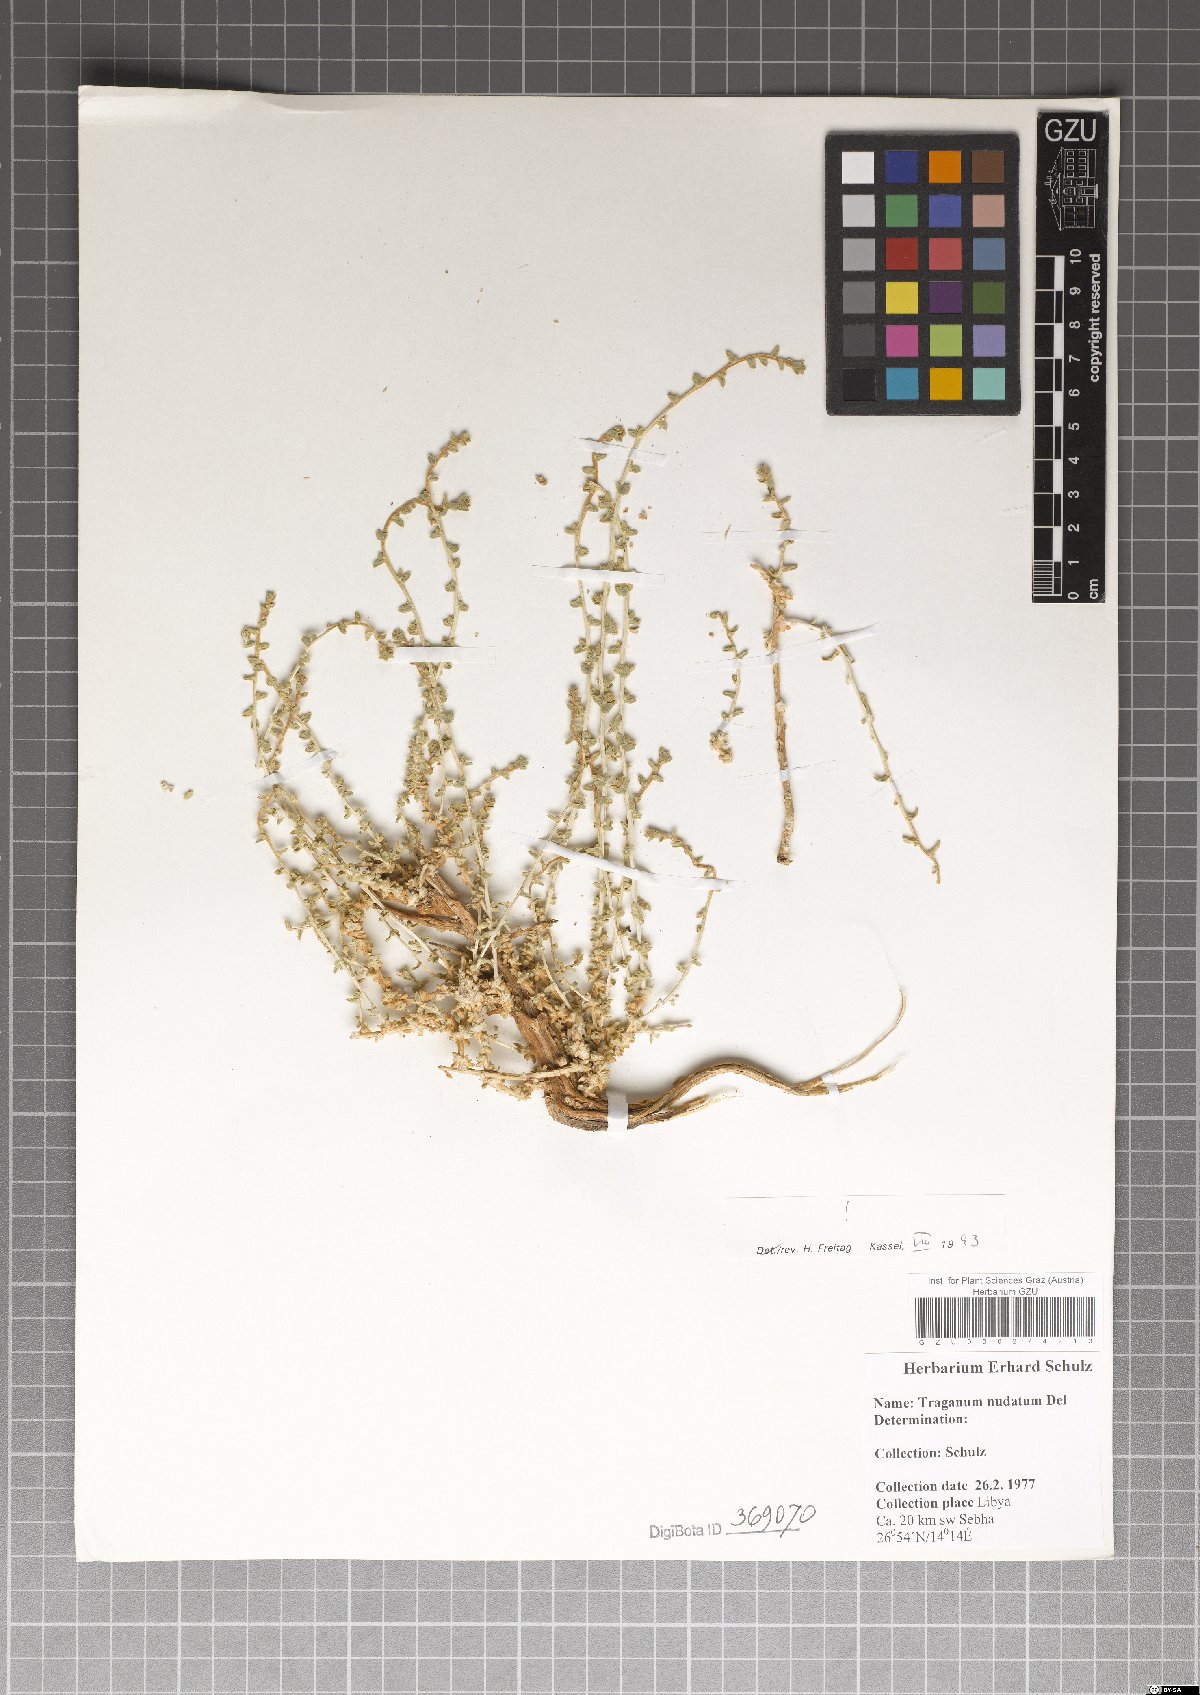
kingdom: Plantae
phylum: Tracheophyta
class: Magnoliopsida
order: Caryophyllales
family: Amaranthaceae
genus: Traganum
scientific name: Traganum nudatum
